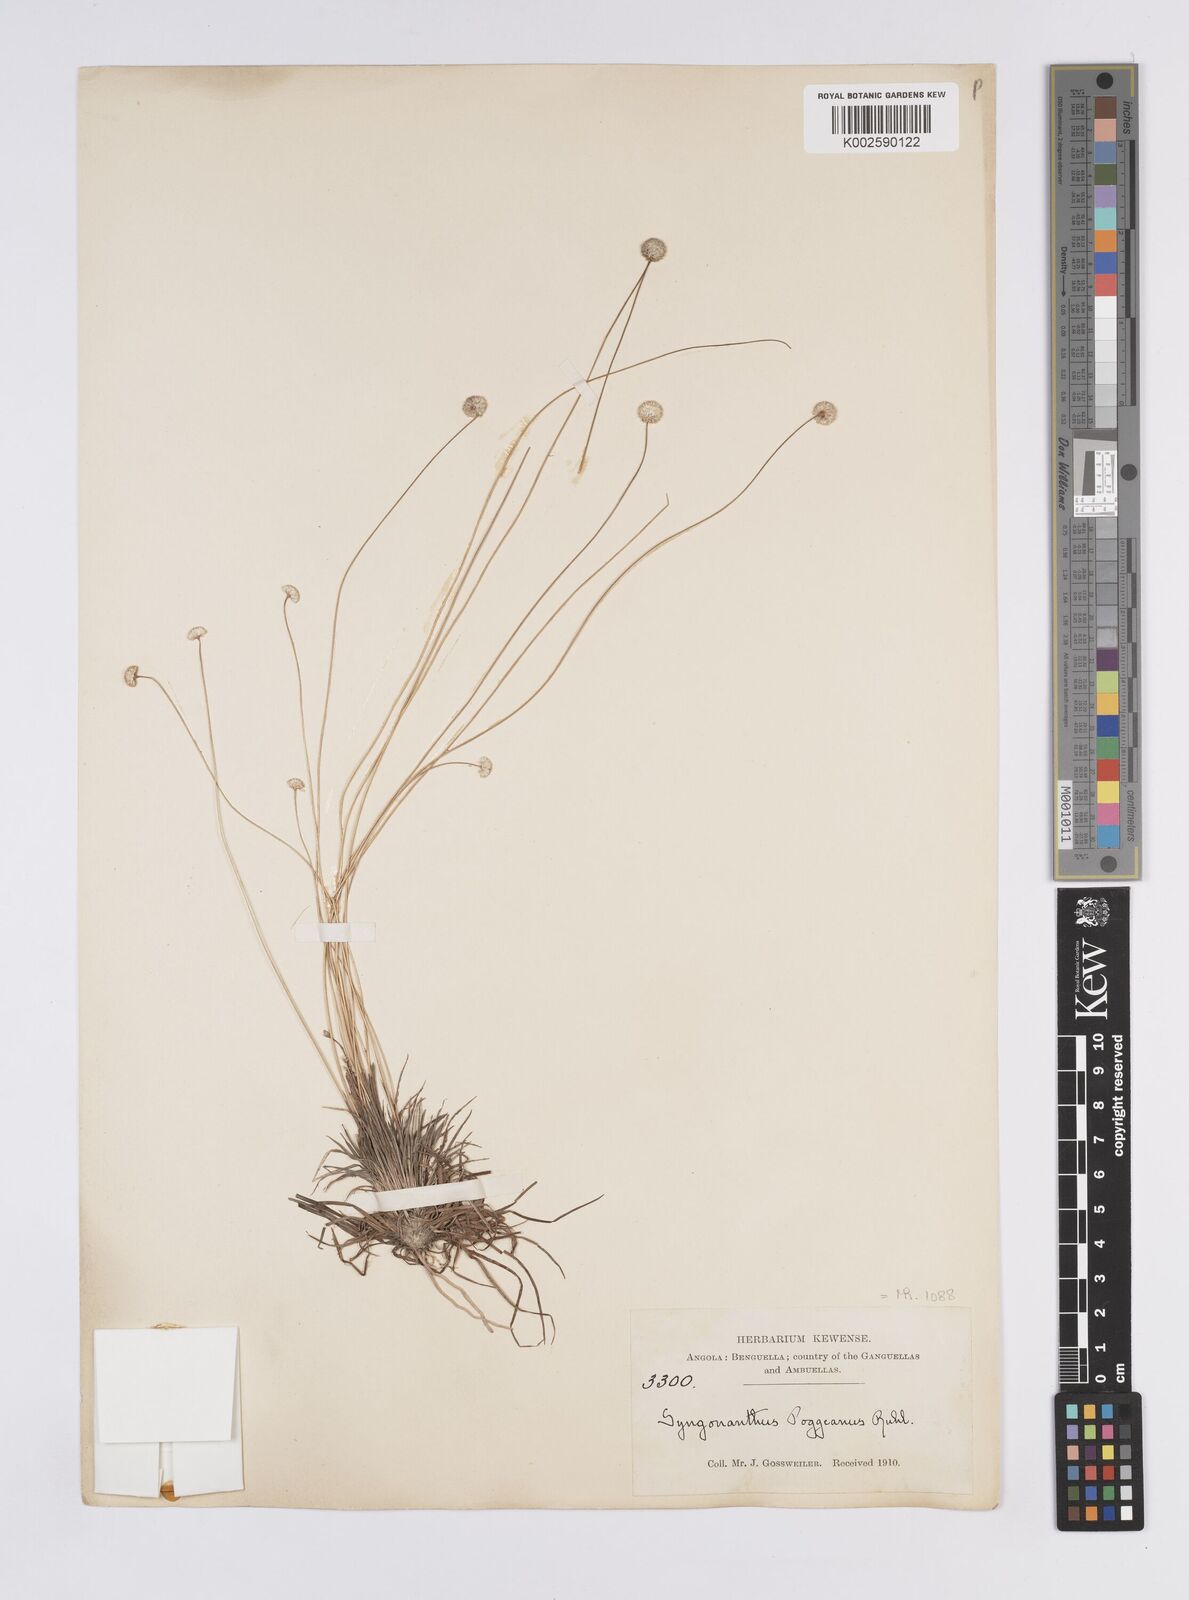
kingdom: Plantae
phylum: Tracheophyta
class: Liliopsida
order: Poales
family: Eriocaulaceae
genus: Syngonanthus
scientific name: Syngonanthus poggeanus
